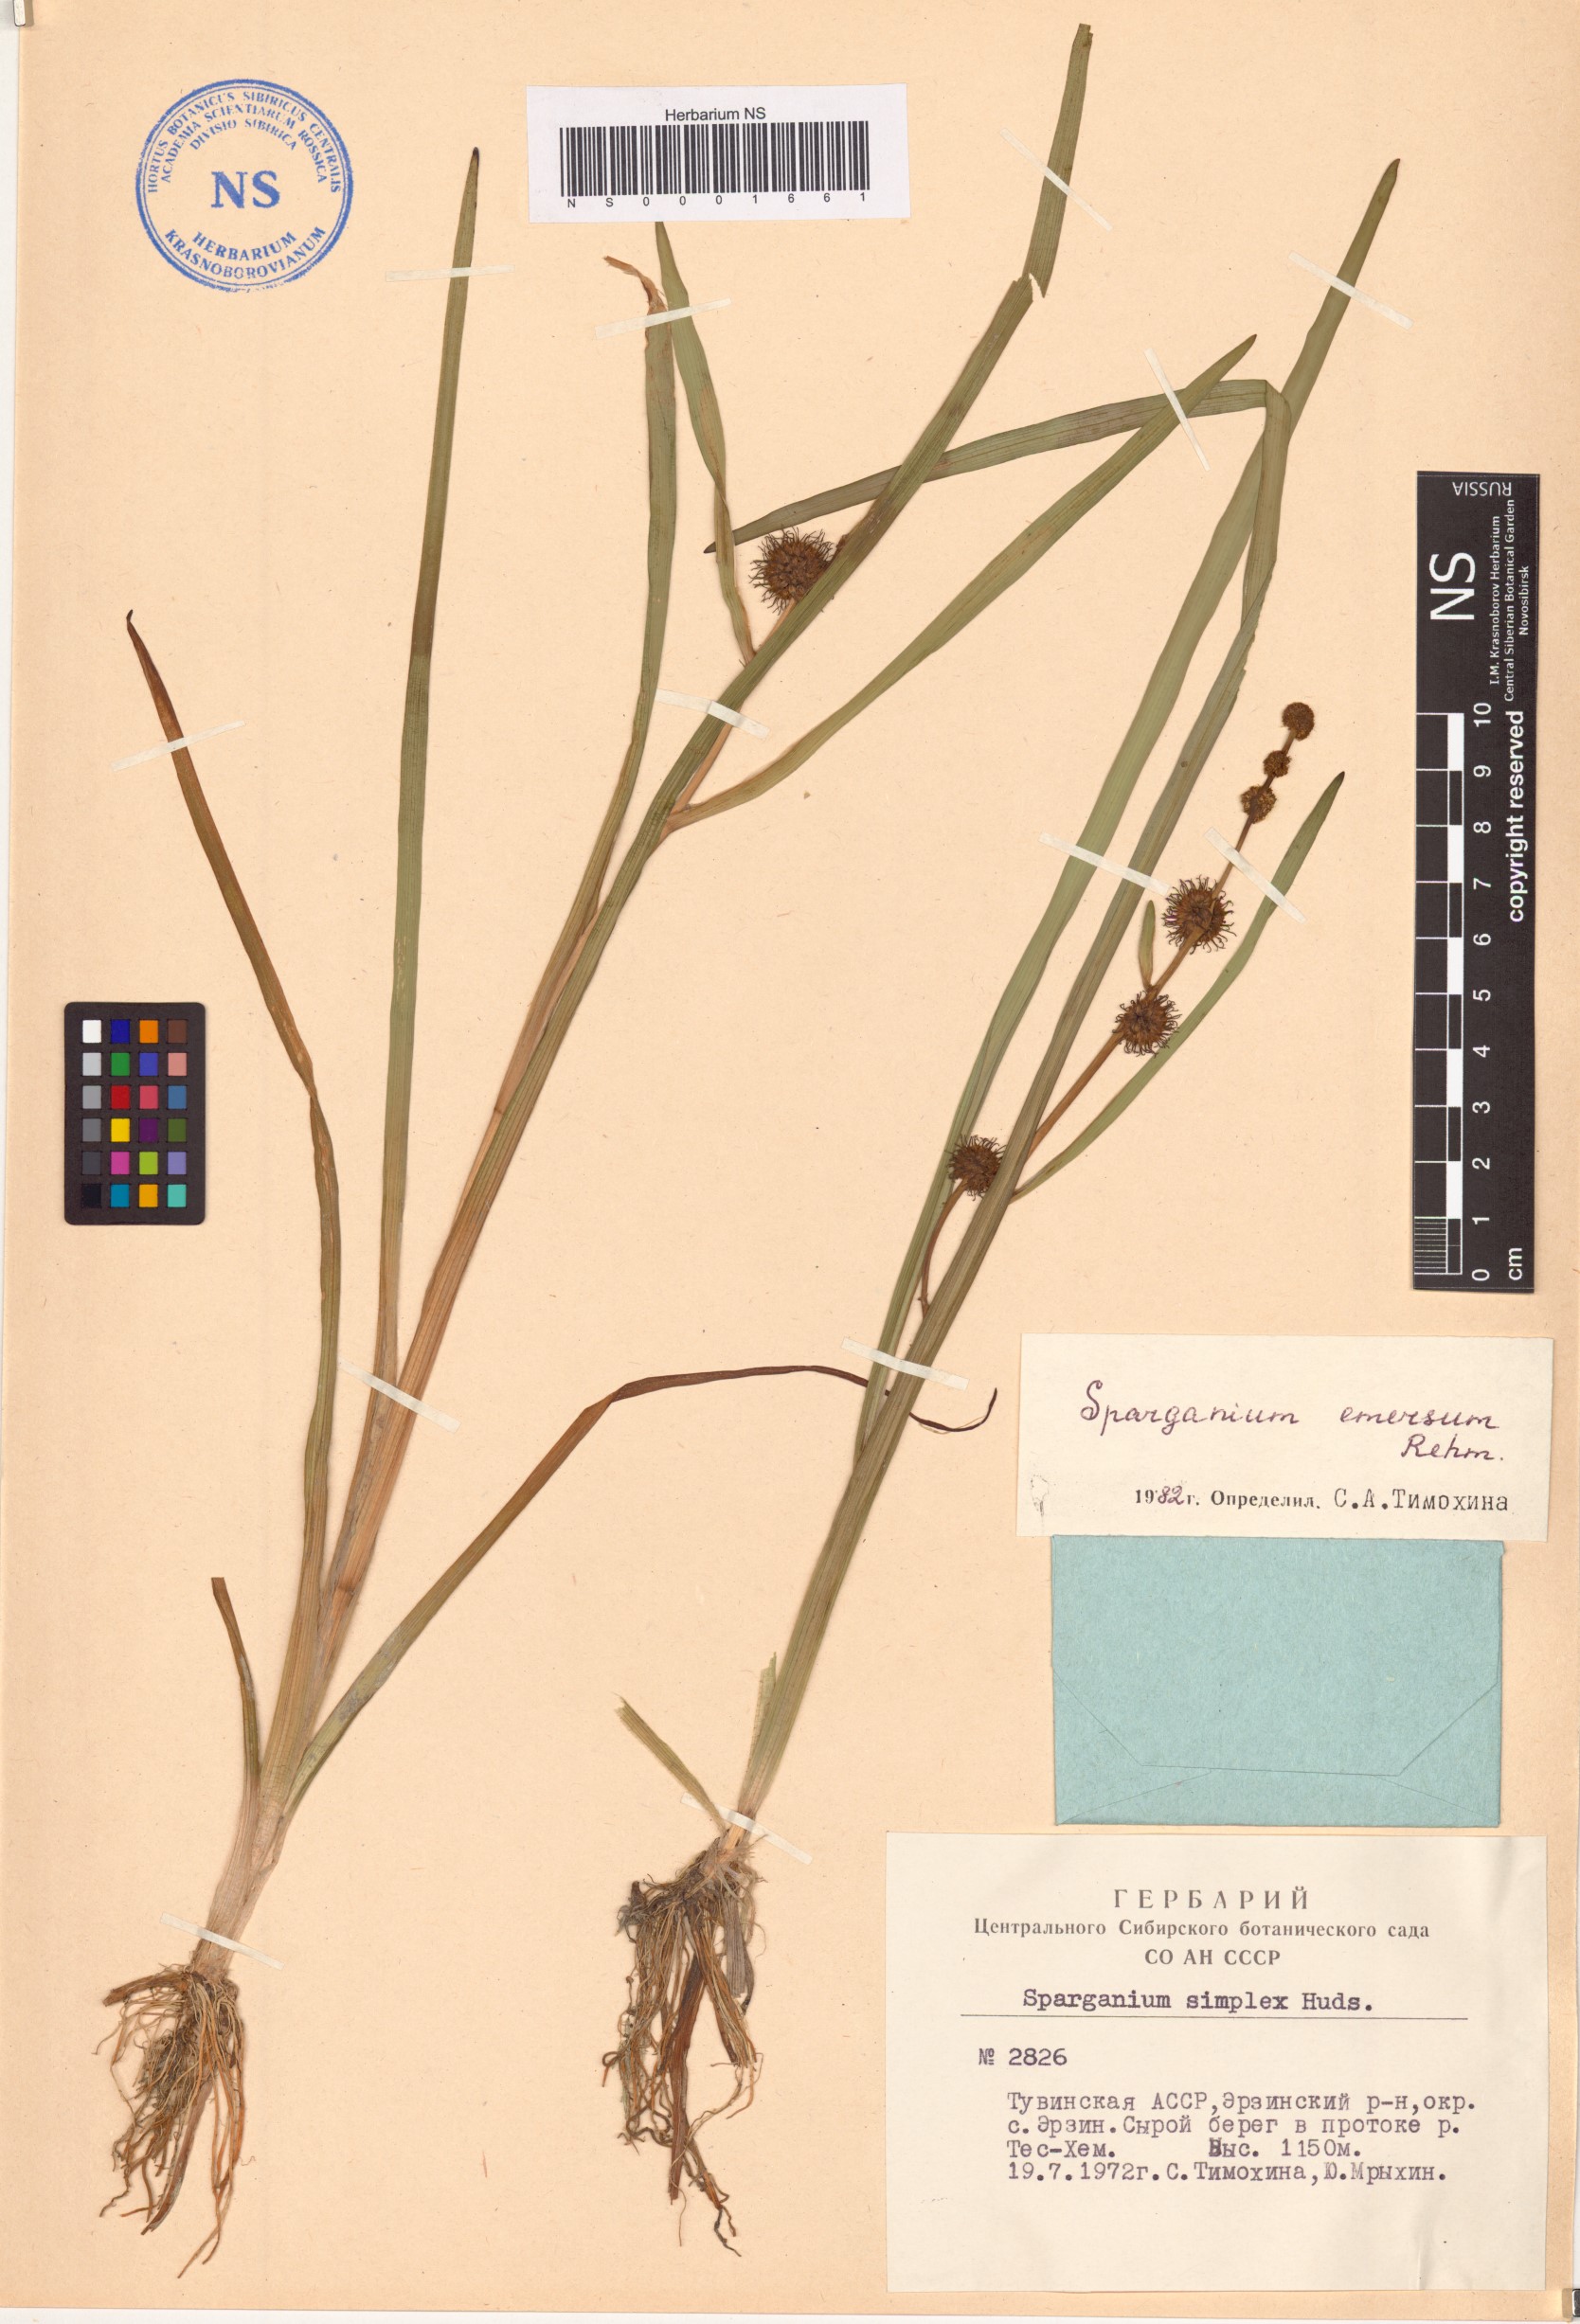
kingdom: Plantae
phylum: Tracheophyta
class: Liliopsida
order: Poales
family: Typhaceae
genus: Sparganium
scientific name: Sparganium emersum
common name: Unbranched bur-reed
